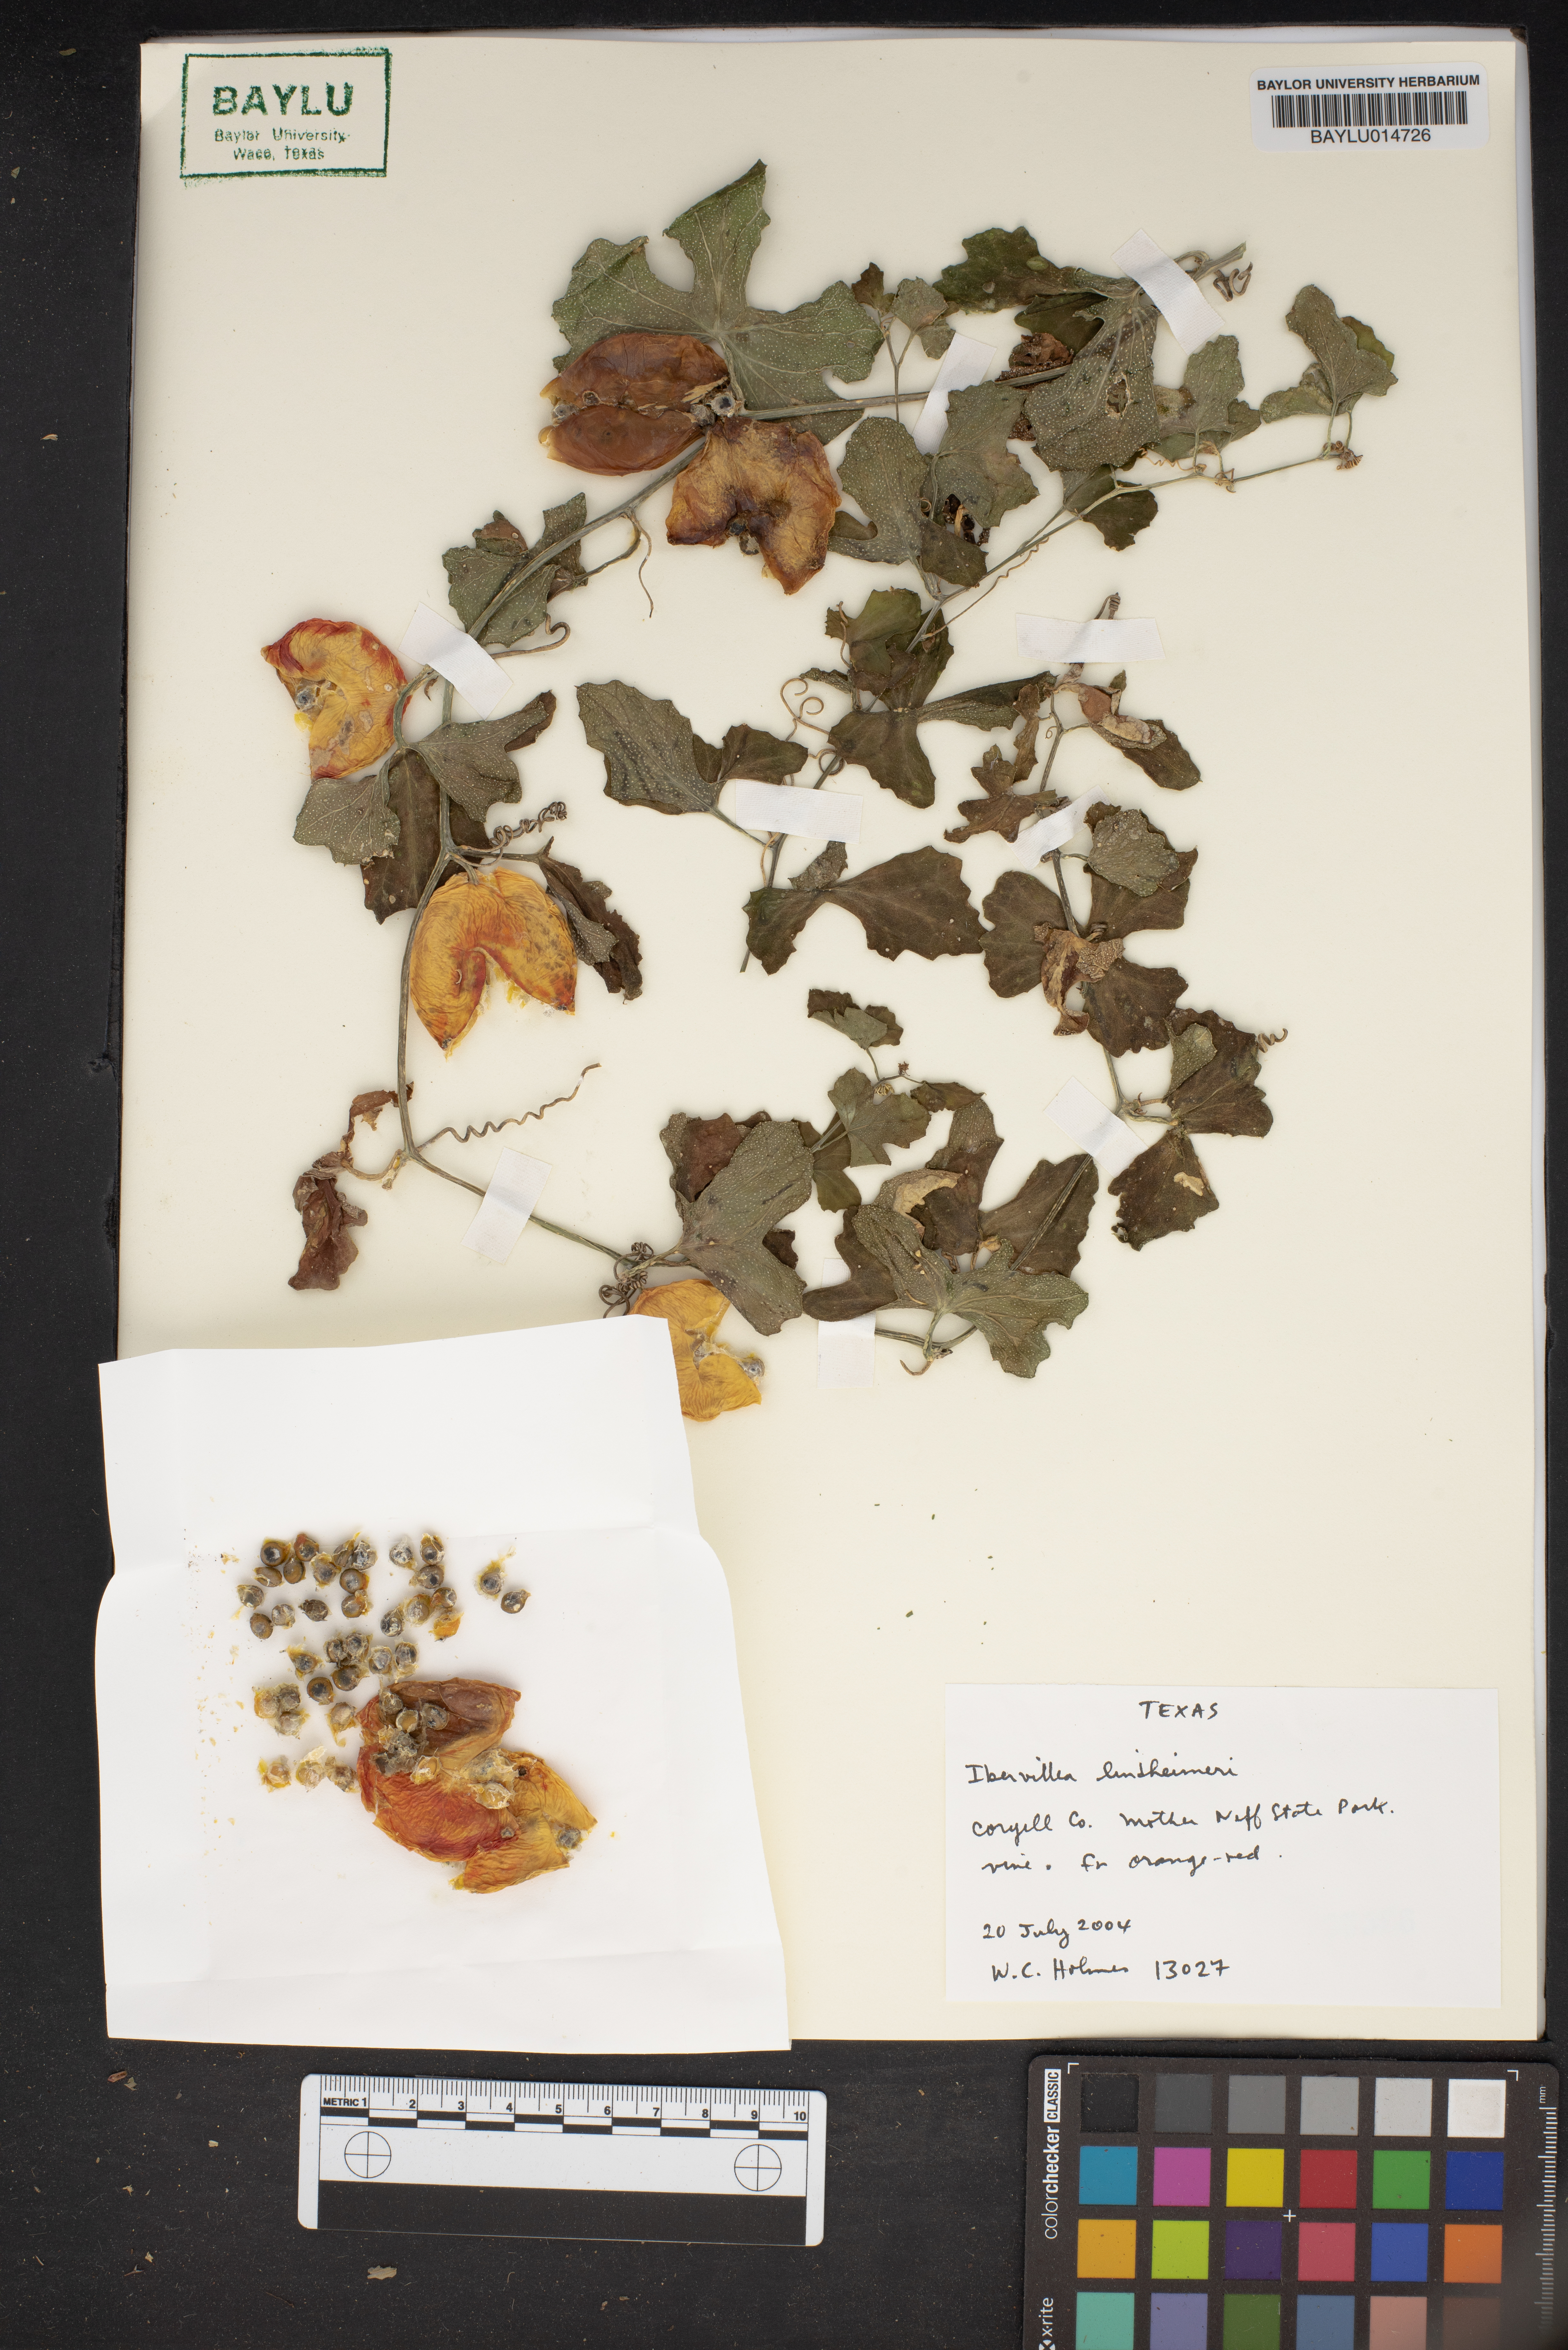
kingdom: Plantae
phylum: Tracheophyta
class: Magnoliopsida
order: Cucurbitales
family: Cucurbitaceae
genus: Ibervillea
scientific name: Ibervillea lindheimeri
